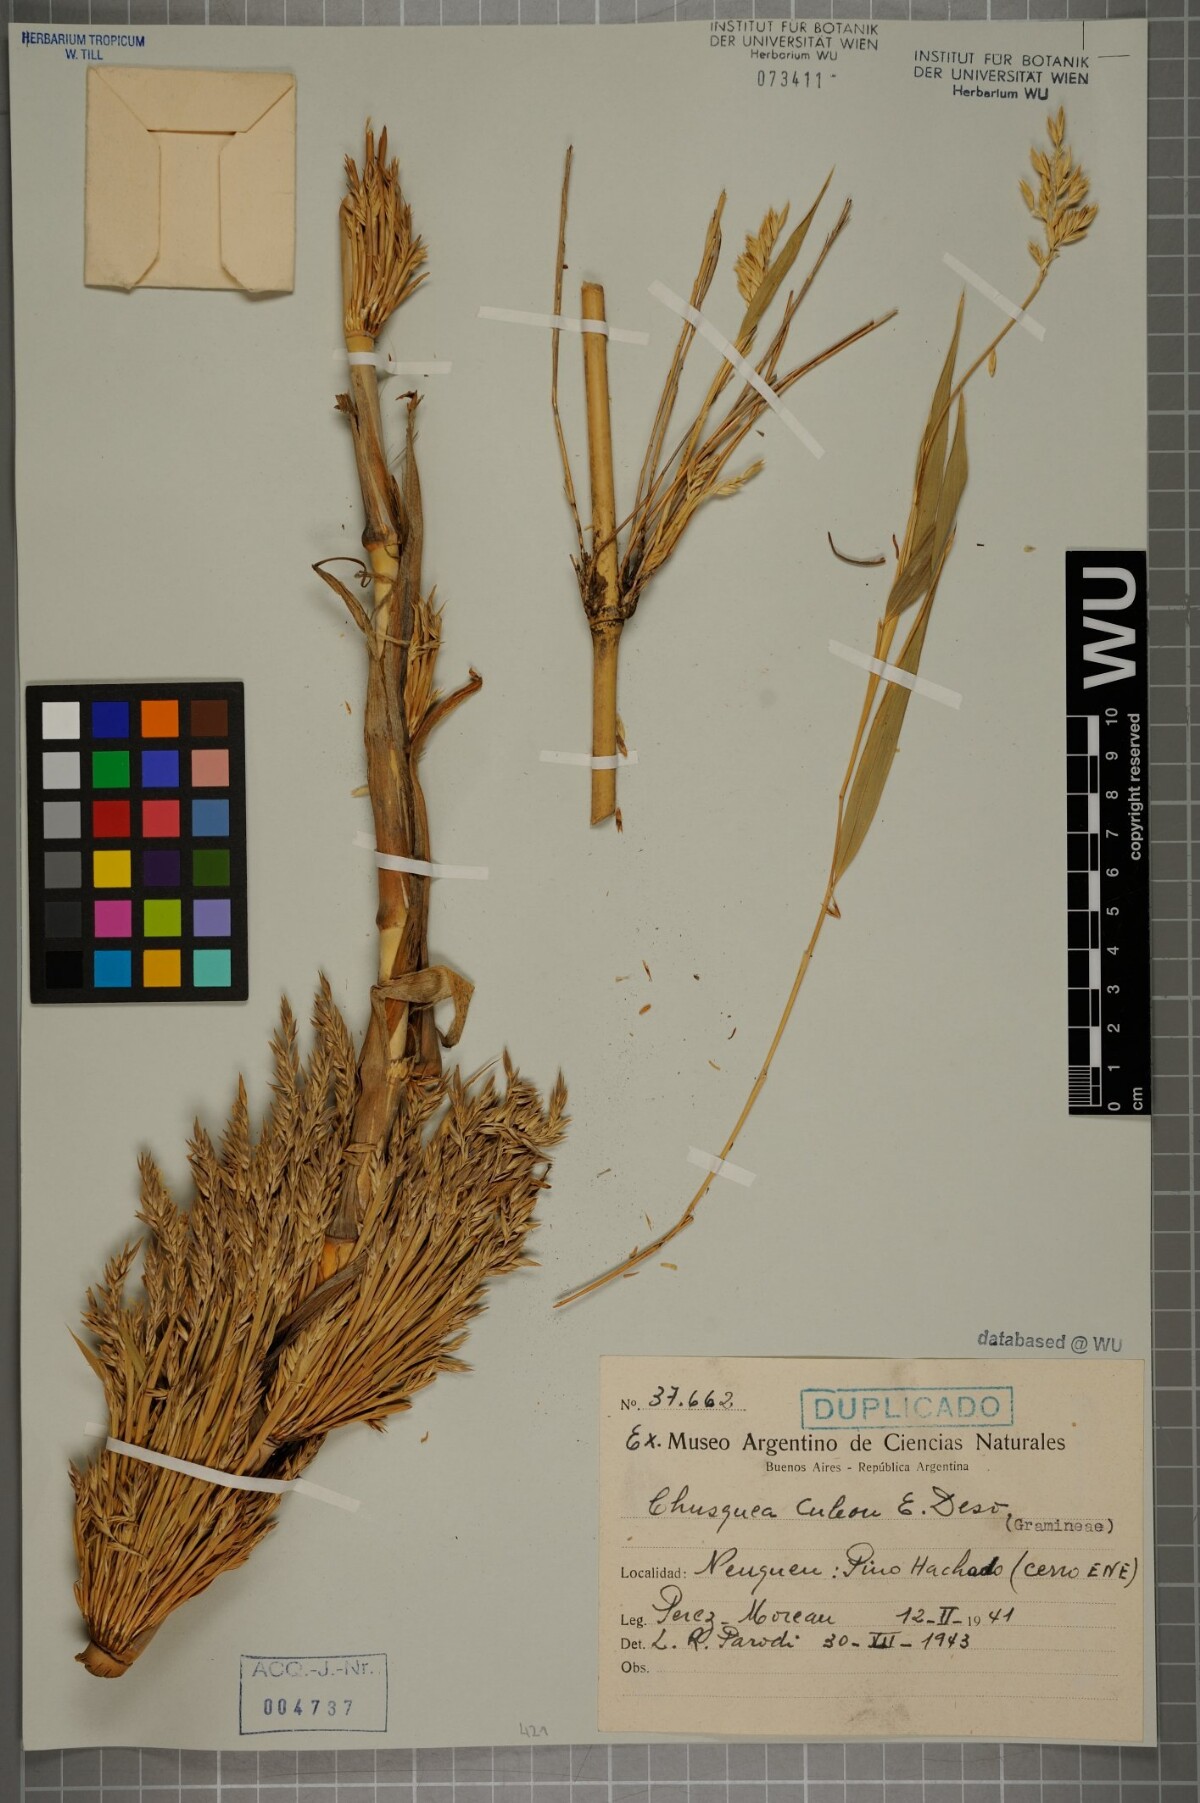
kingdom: Plantae
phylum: Tracheophyta
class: Liliopsida
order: Poales
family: Poaceae
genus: Chusquea
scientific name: Chusquea culeou
